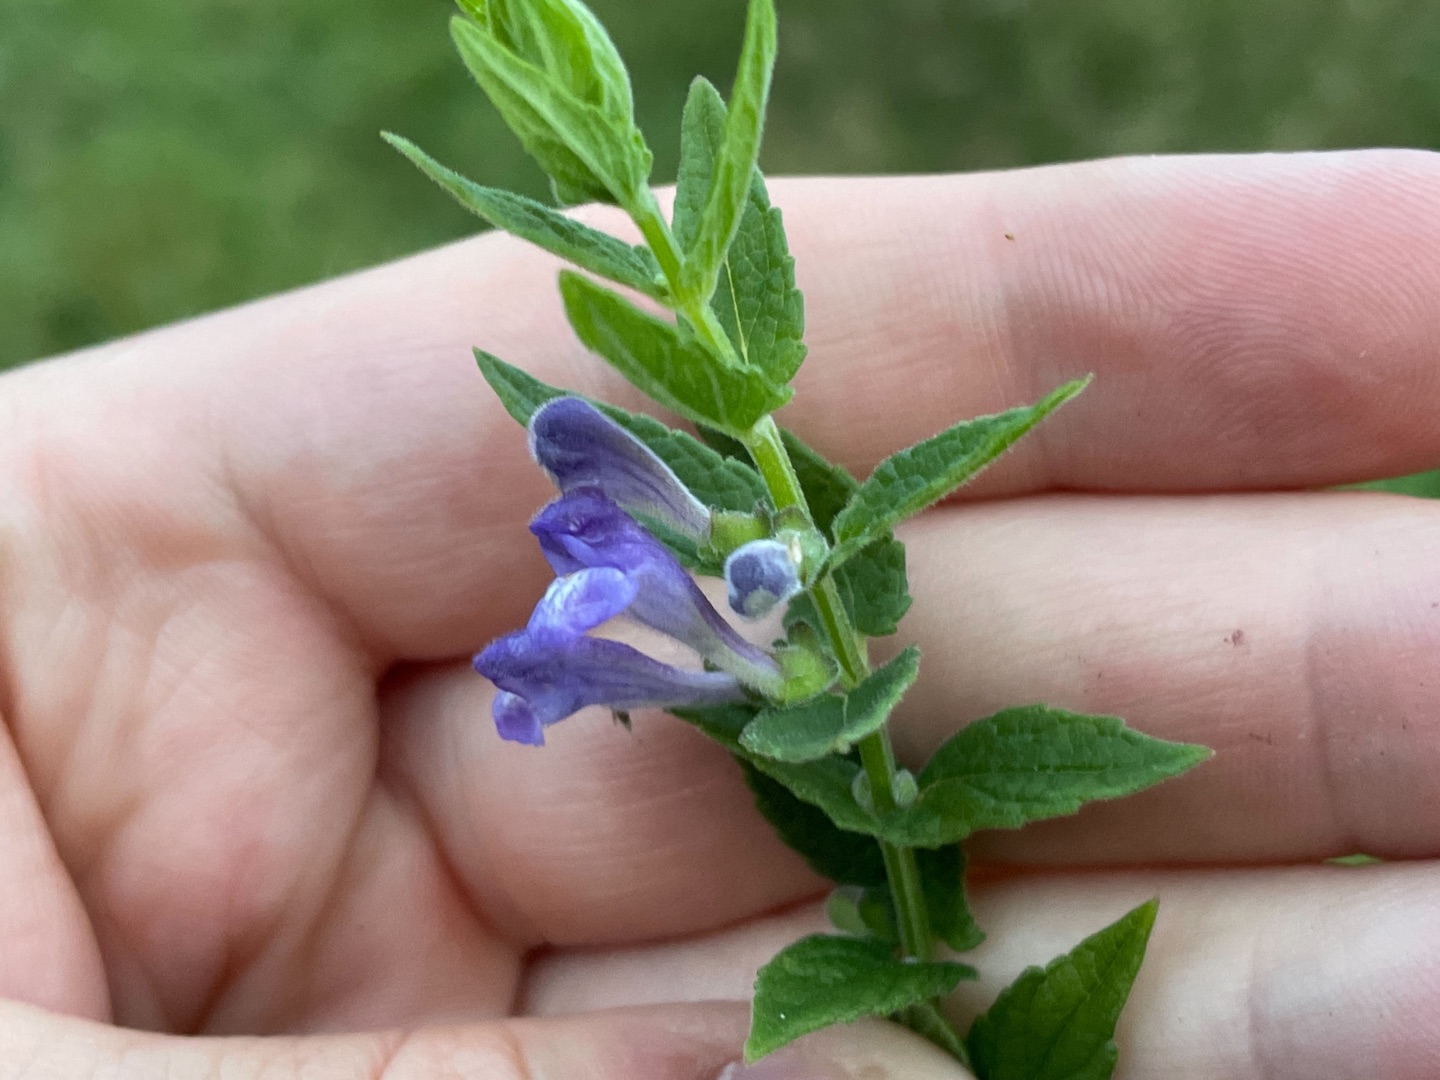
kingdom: Plantae
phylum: Tracheophyta
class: Magnoliopsida
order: Lamiales
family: Lamiaceae
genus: Scutellaria
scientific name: Scutellaria galericulata
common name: Almindelig skjolddrager
